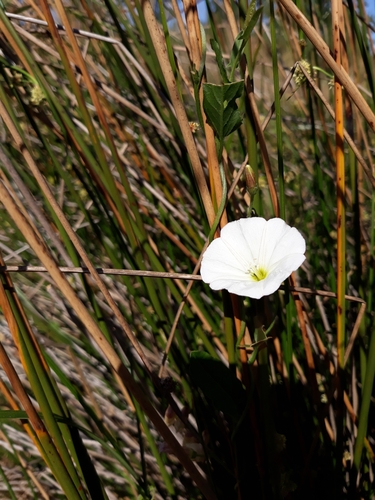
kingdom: Plantae
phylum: Tracheophyta
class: Magnoliopsida
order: Solanales
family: Convolvulaceae
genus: Convolvulus
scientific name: Convolvulus arvensis
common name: Field bindweed
